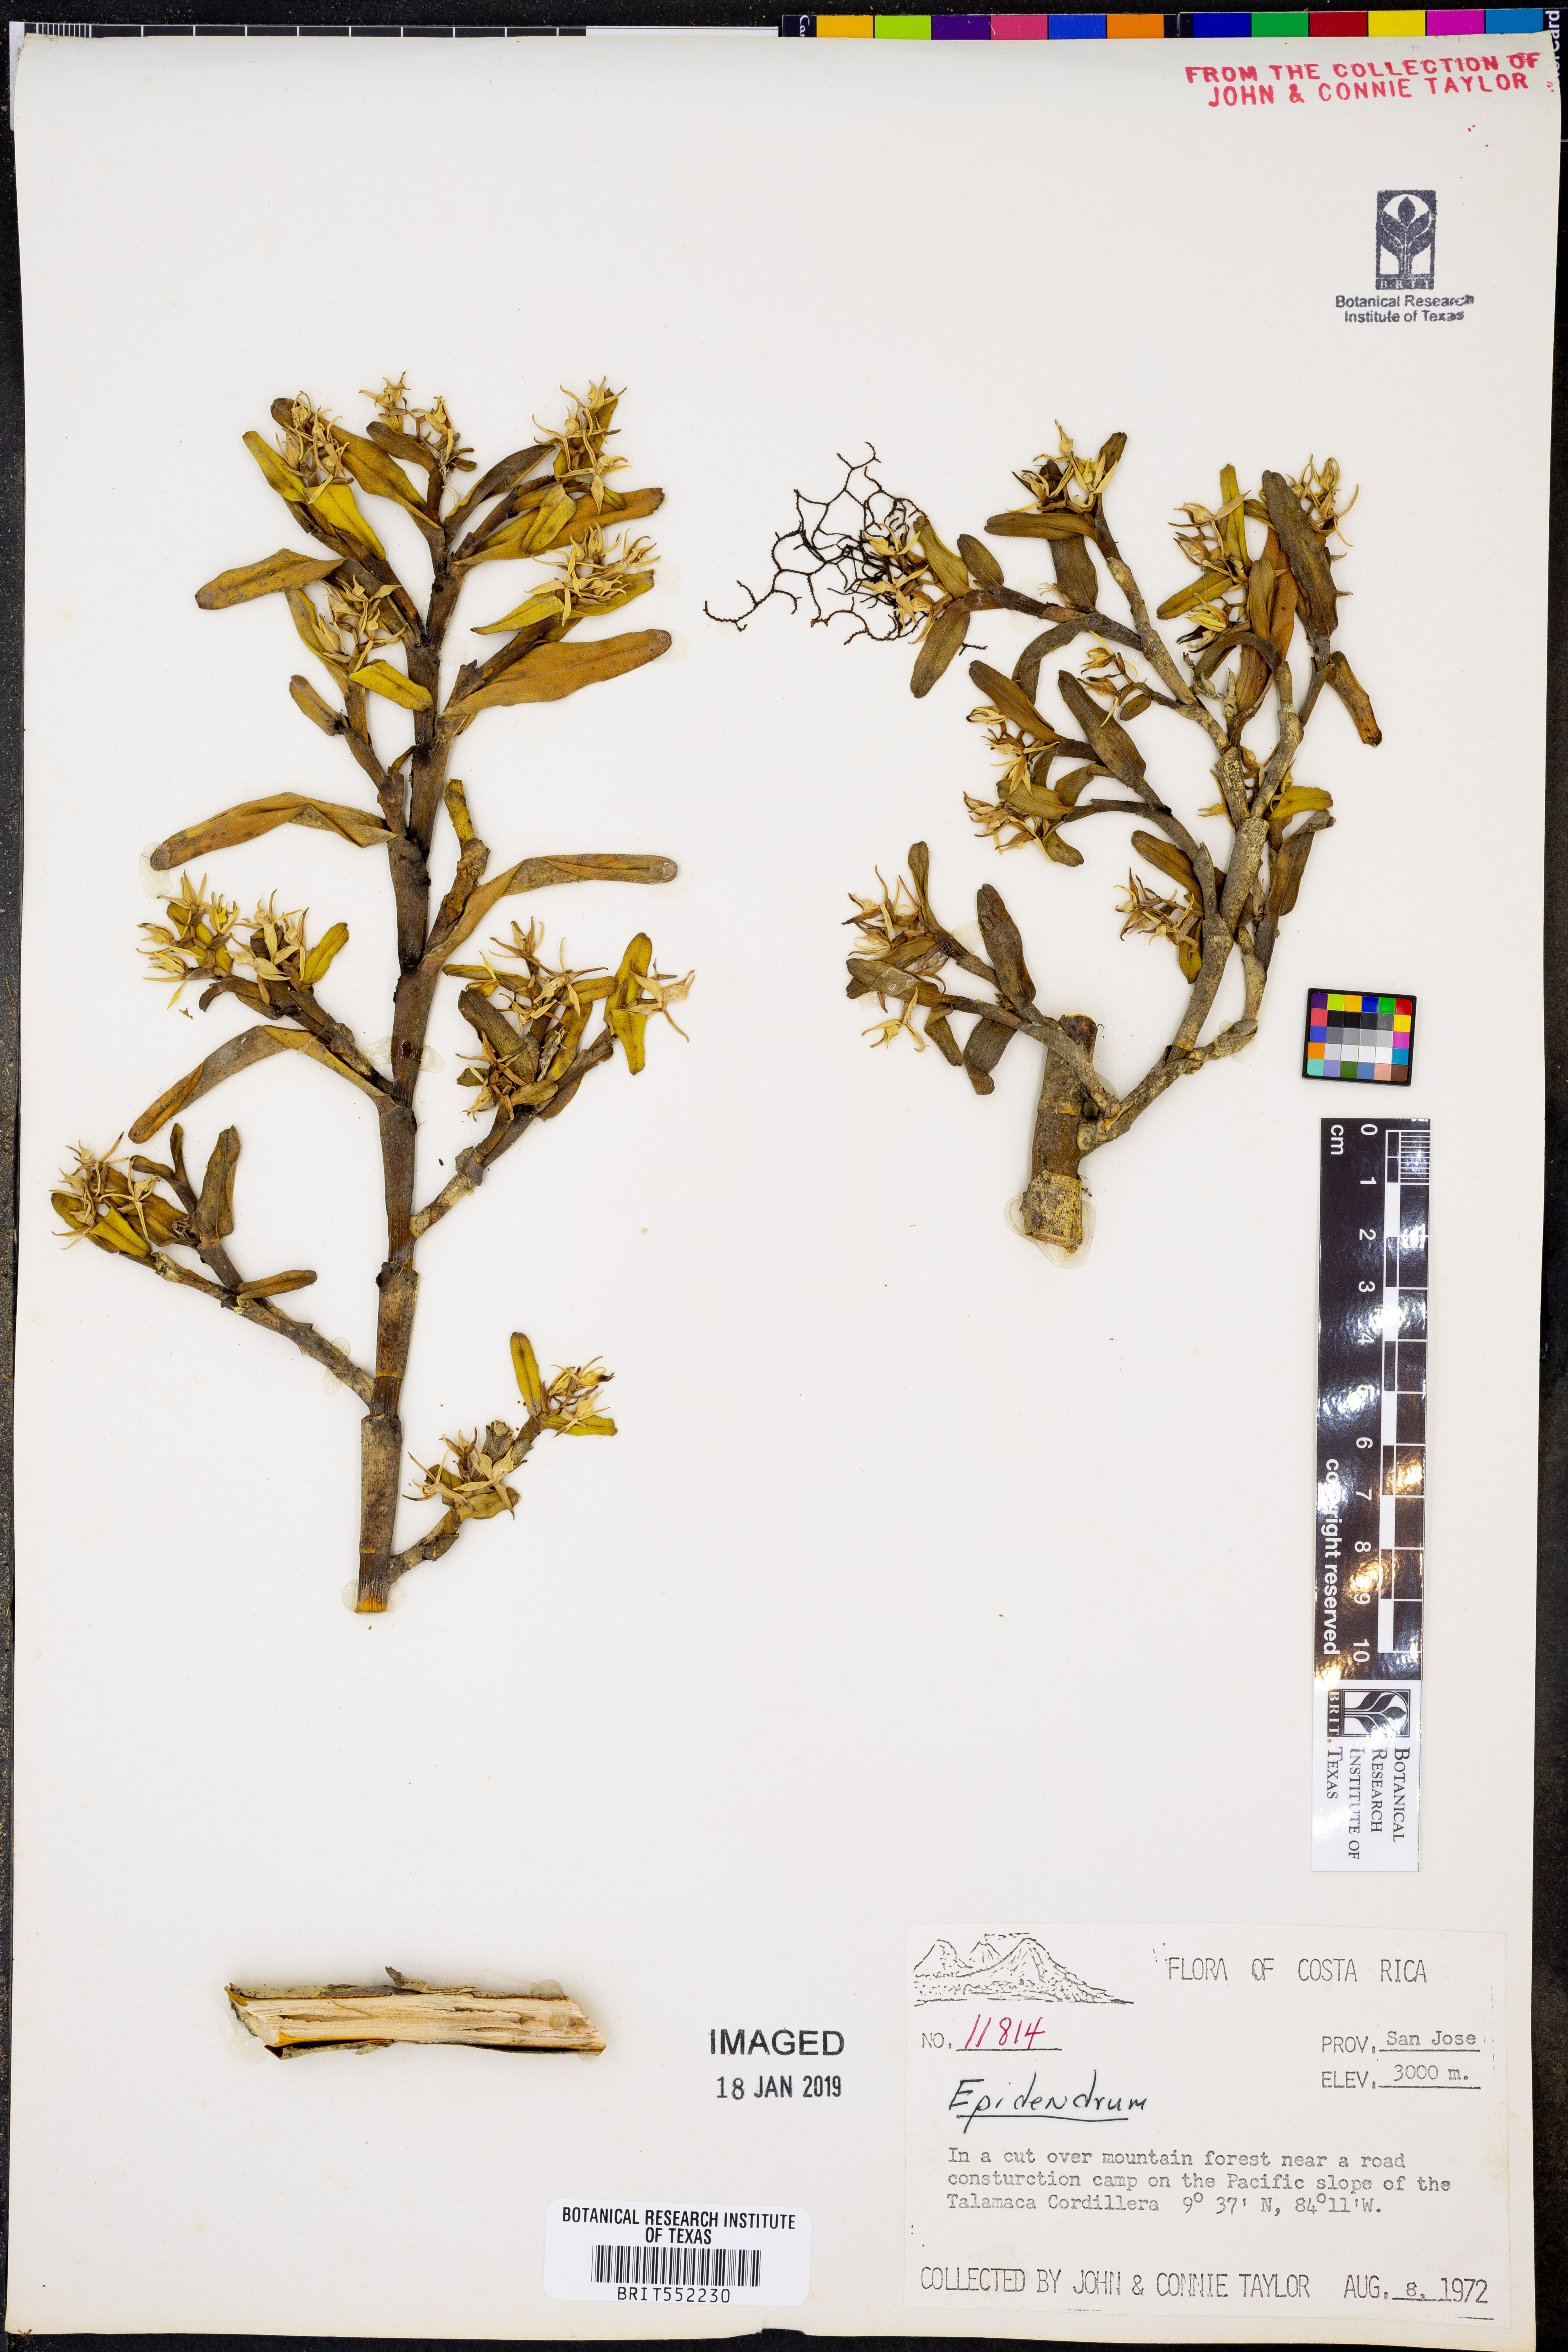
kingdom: Plantae
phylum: Tracheophyta
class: Liliopsida
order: Asparagales
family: Orchidaceae
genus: Epidendrum
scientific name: Epidendrum
